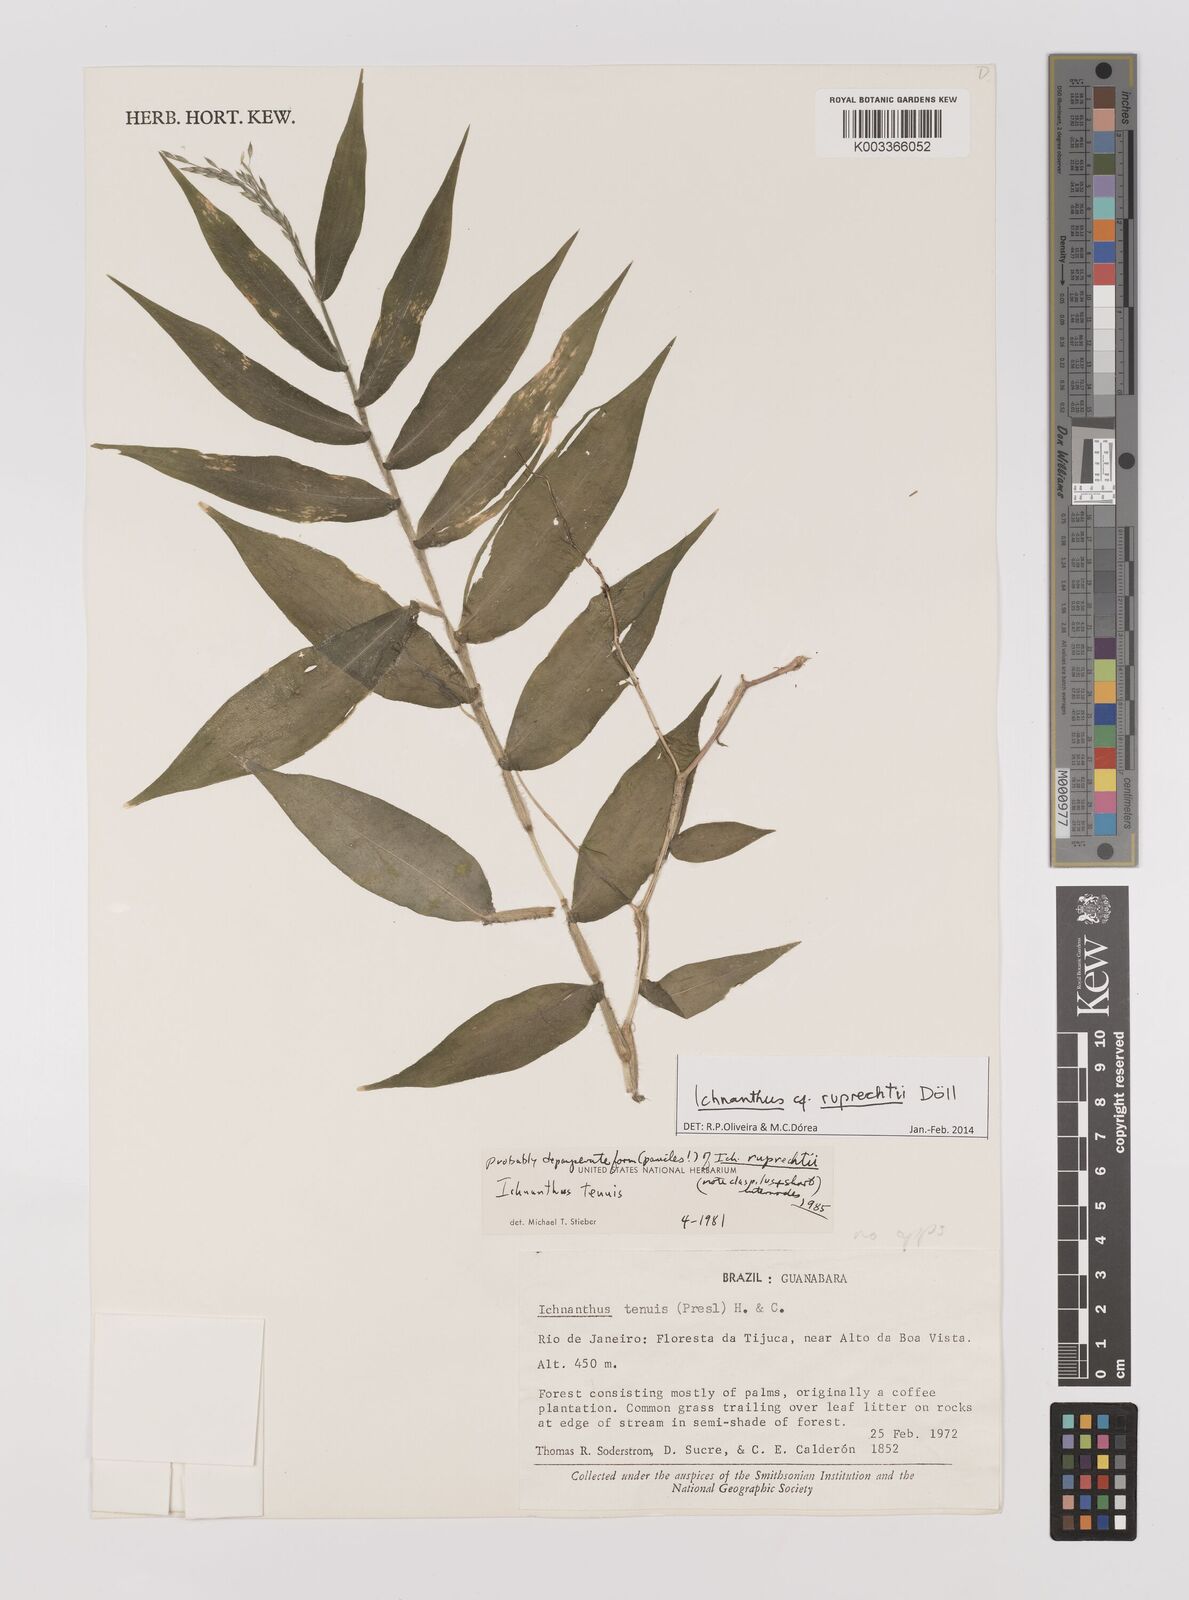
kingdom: Plantae
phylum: Tracheophyta
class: Liliopsida
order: Poales
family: Poaceae
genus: Ichnanthus
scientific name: Ichnanthus ruprechtii
